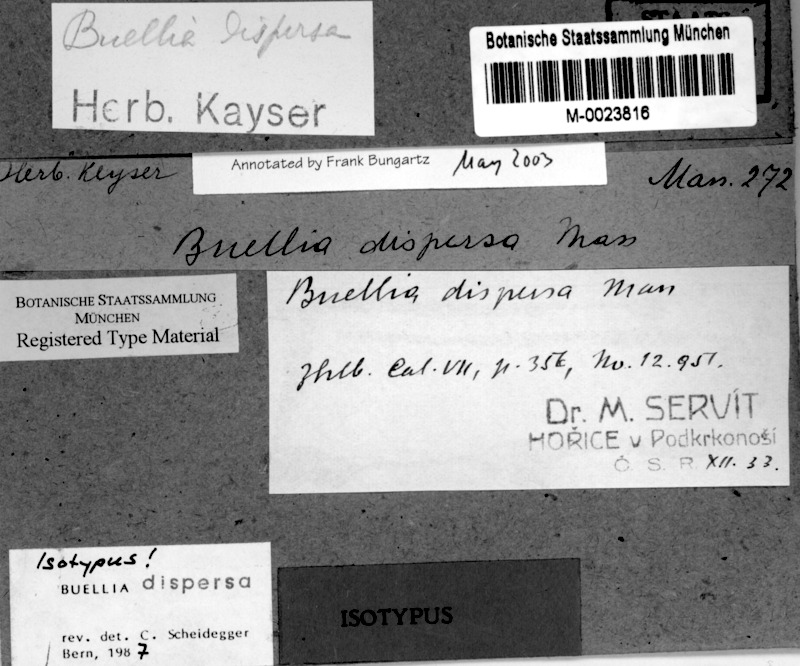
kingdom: Fungi
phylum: Ascomycota
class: Lecanoromycetes
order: Caliciales
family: Caliciaceae
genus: Buellia
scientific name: Buellia dispersa
